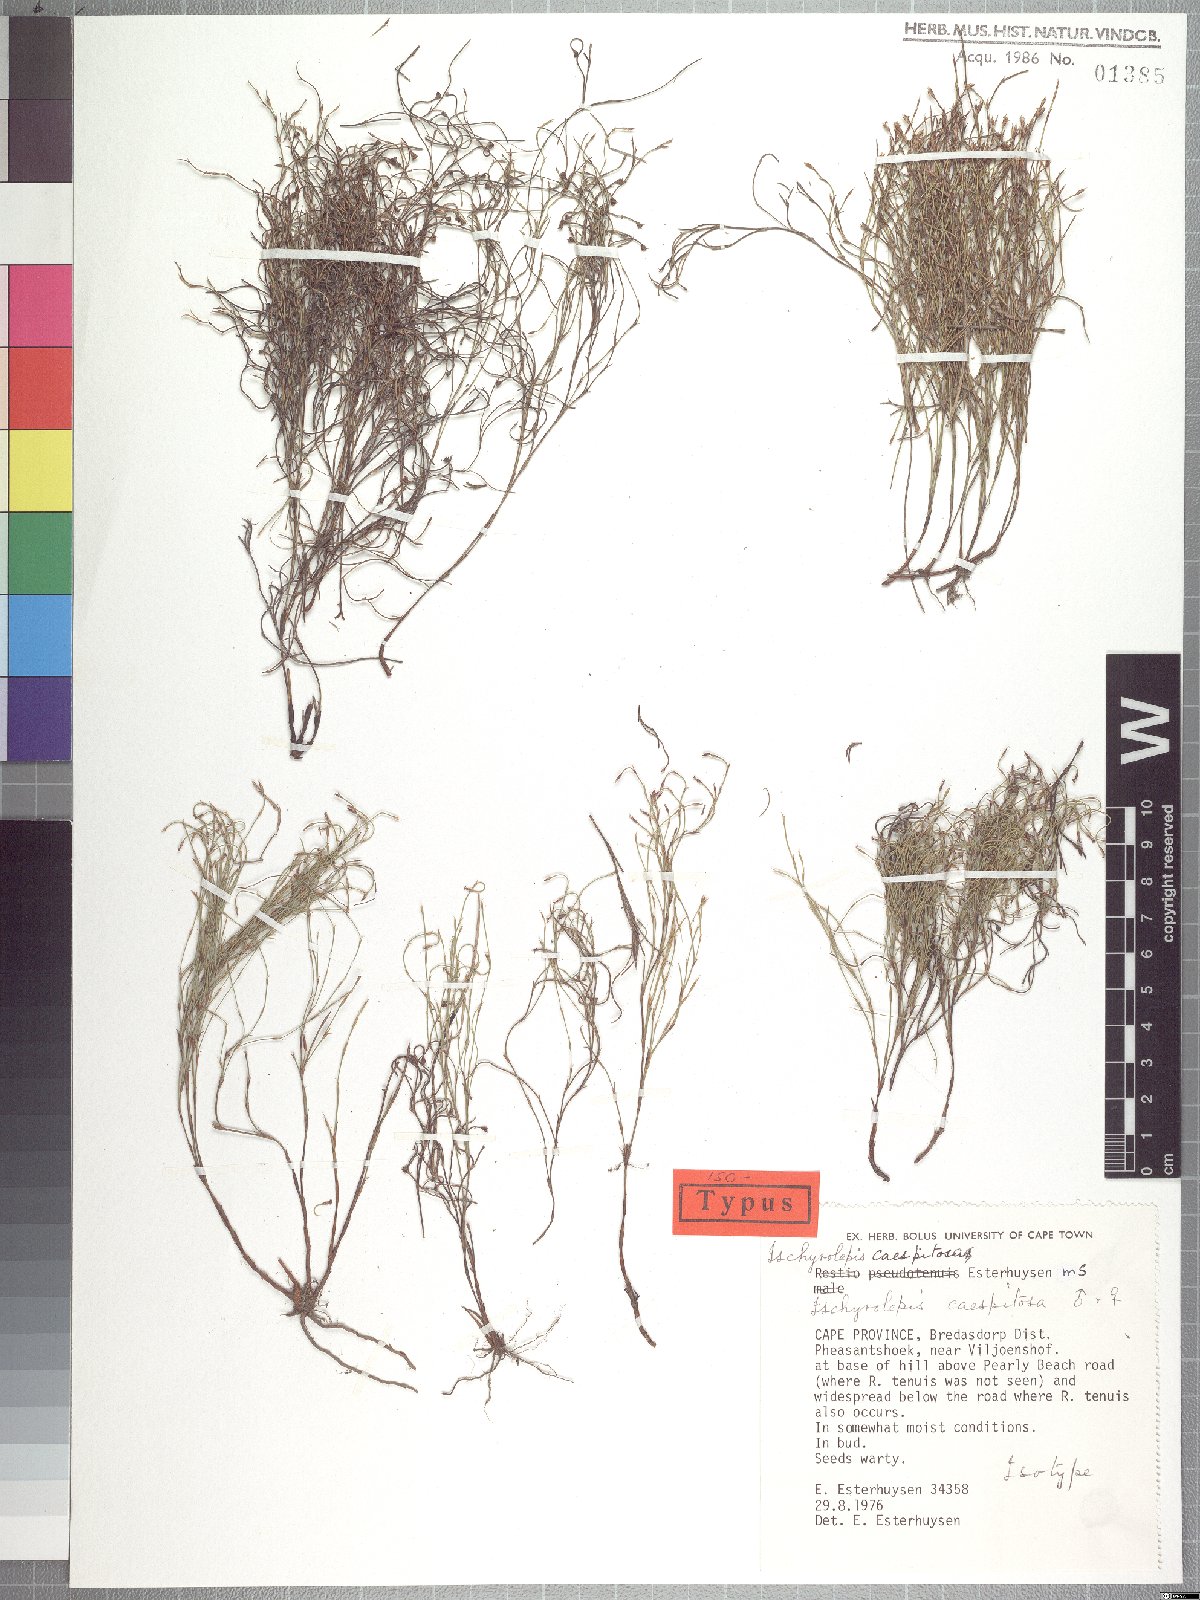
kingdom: Plantae
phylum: Tracheophyta
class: Liliopsida
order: Poales
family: Restionaceae
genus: Restio
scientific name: Restio caespitosus
